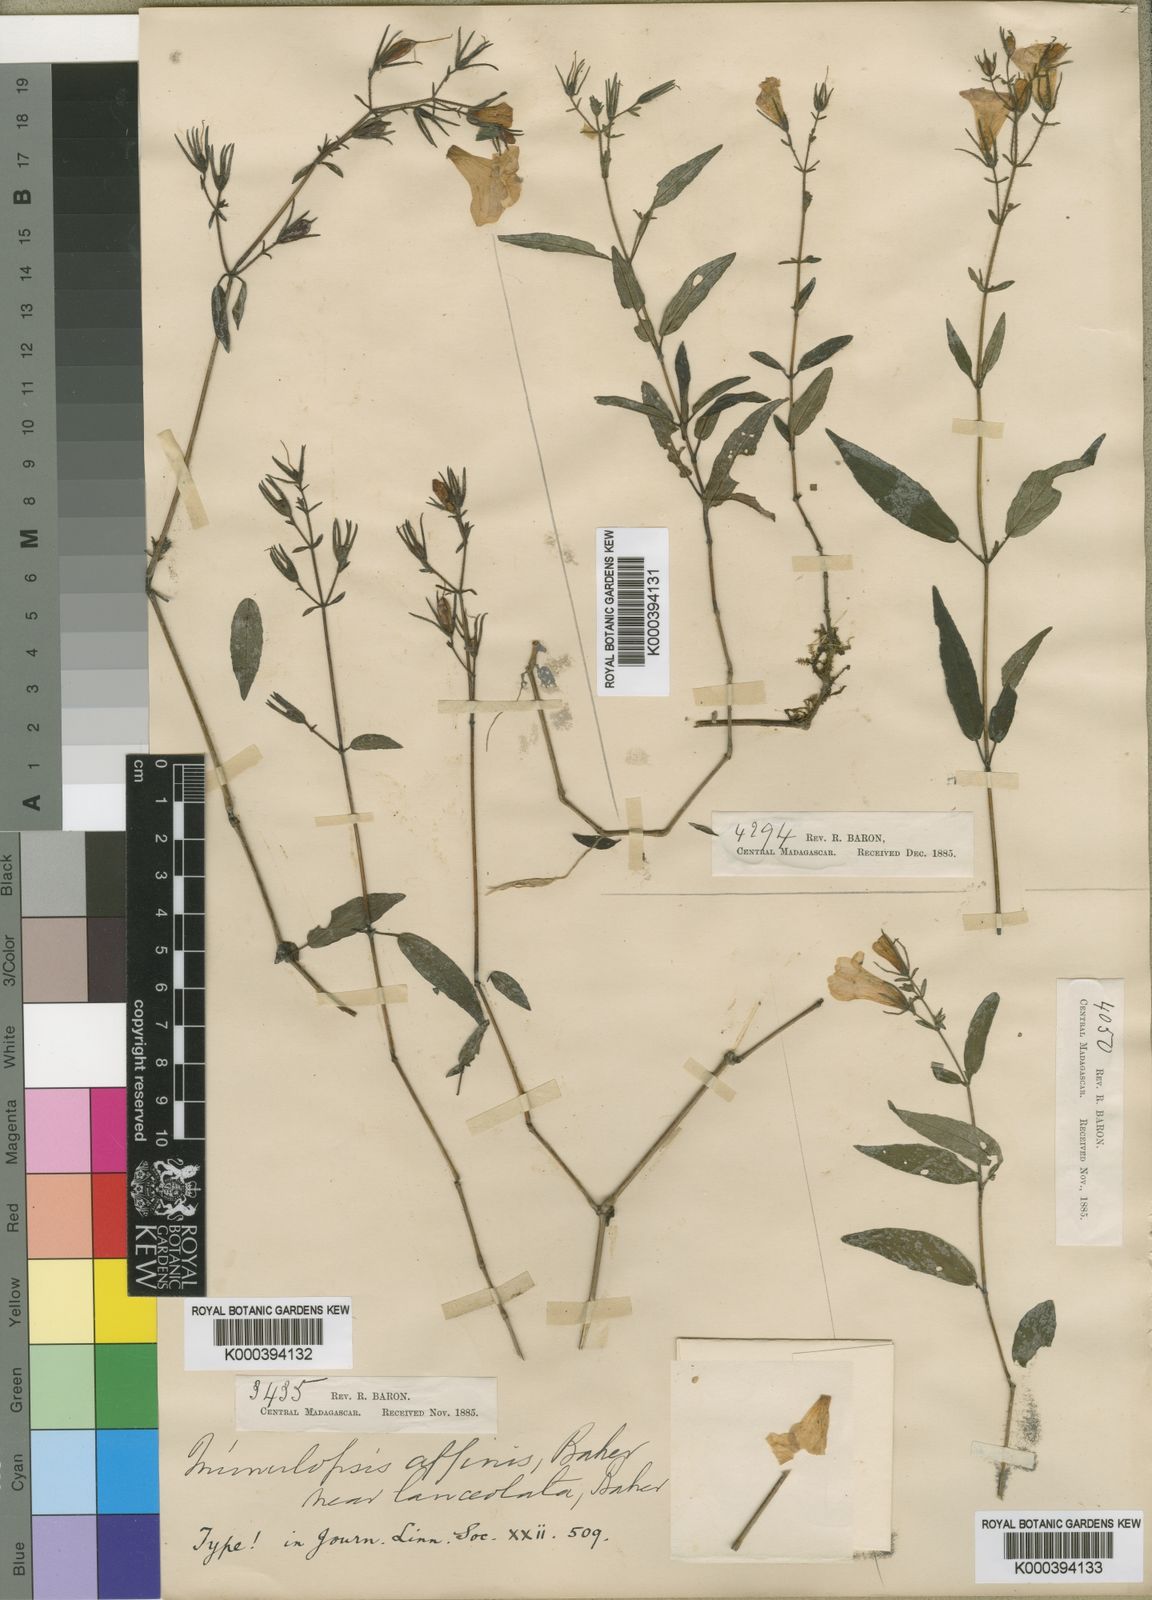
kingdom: Plantae
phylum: Tracheophyta
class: Magnoliopsida
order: Lamiales
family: Acanthaceae
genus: Mimulopsis
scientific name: Mimulopsis
